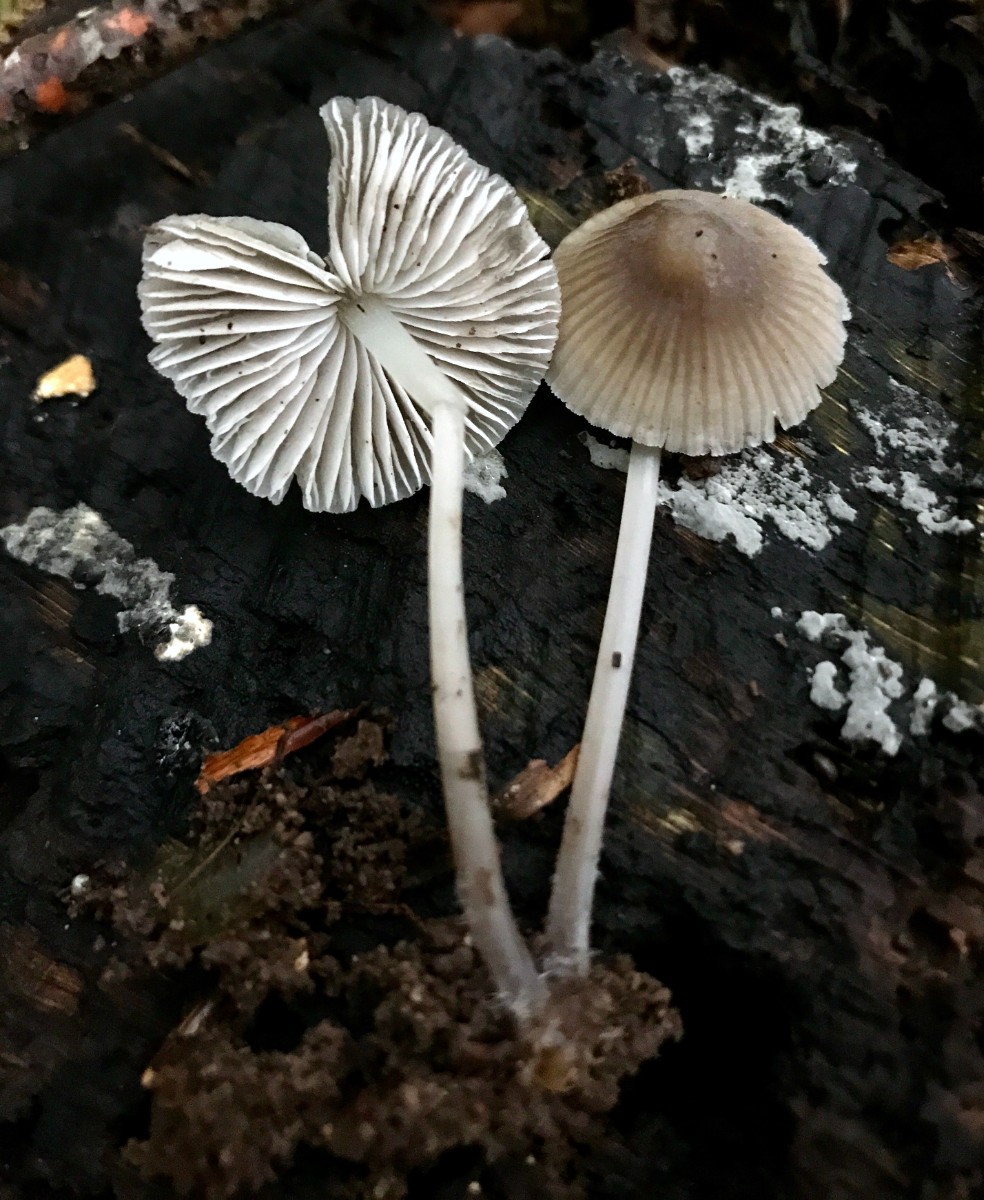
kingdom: Fungi
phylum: Basidiomycota
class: Agaricomycetes
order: Agaricales
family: Mycenaceae
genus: Mycena
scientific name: Mycena
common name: huesvamp
